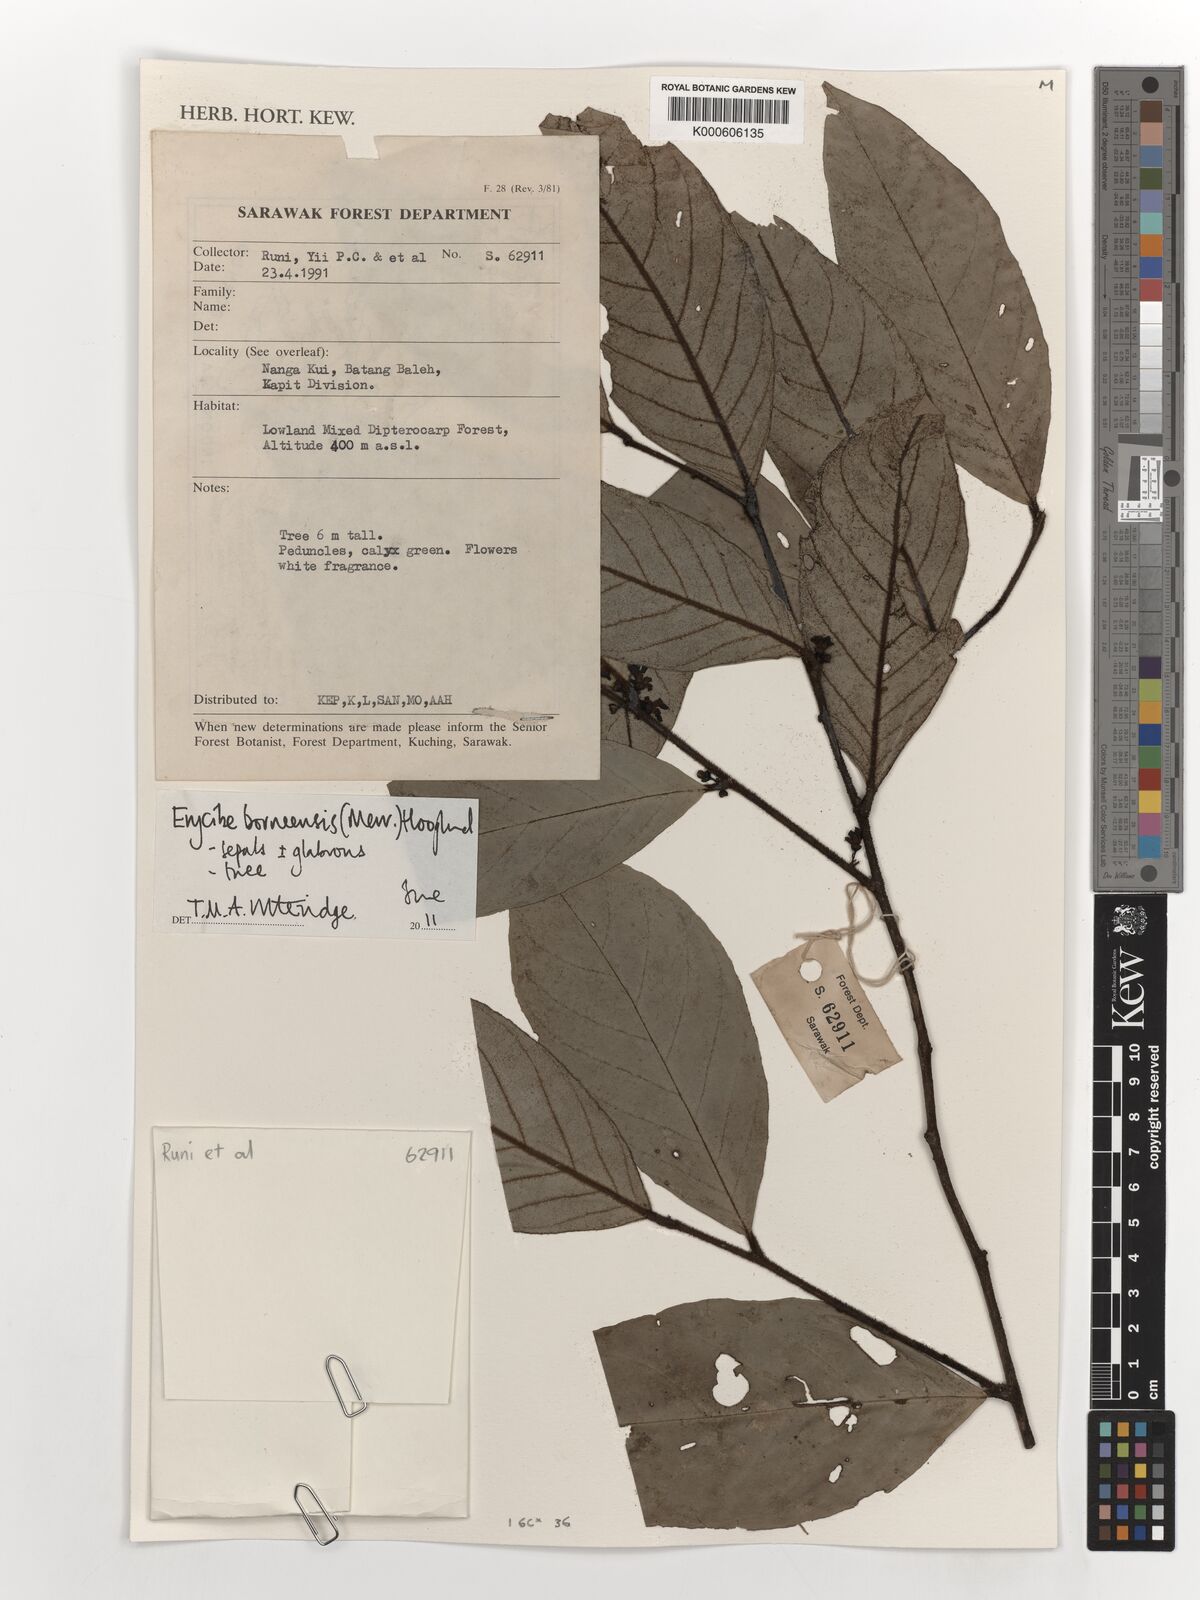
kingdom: Plantae
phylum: Tracheophyta
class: Magnoliopsida
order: Solanales
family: Convolvulaceae
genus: Erycibe
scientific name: Erycibe borneensis
